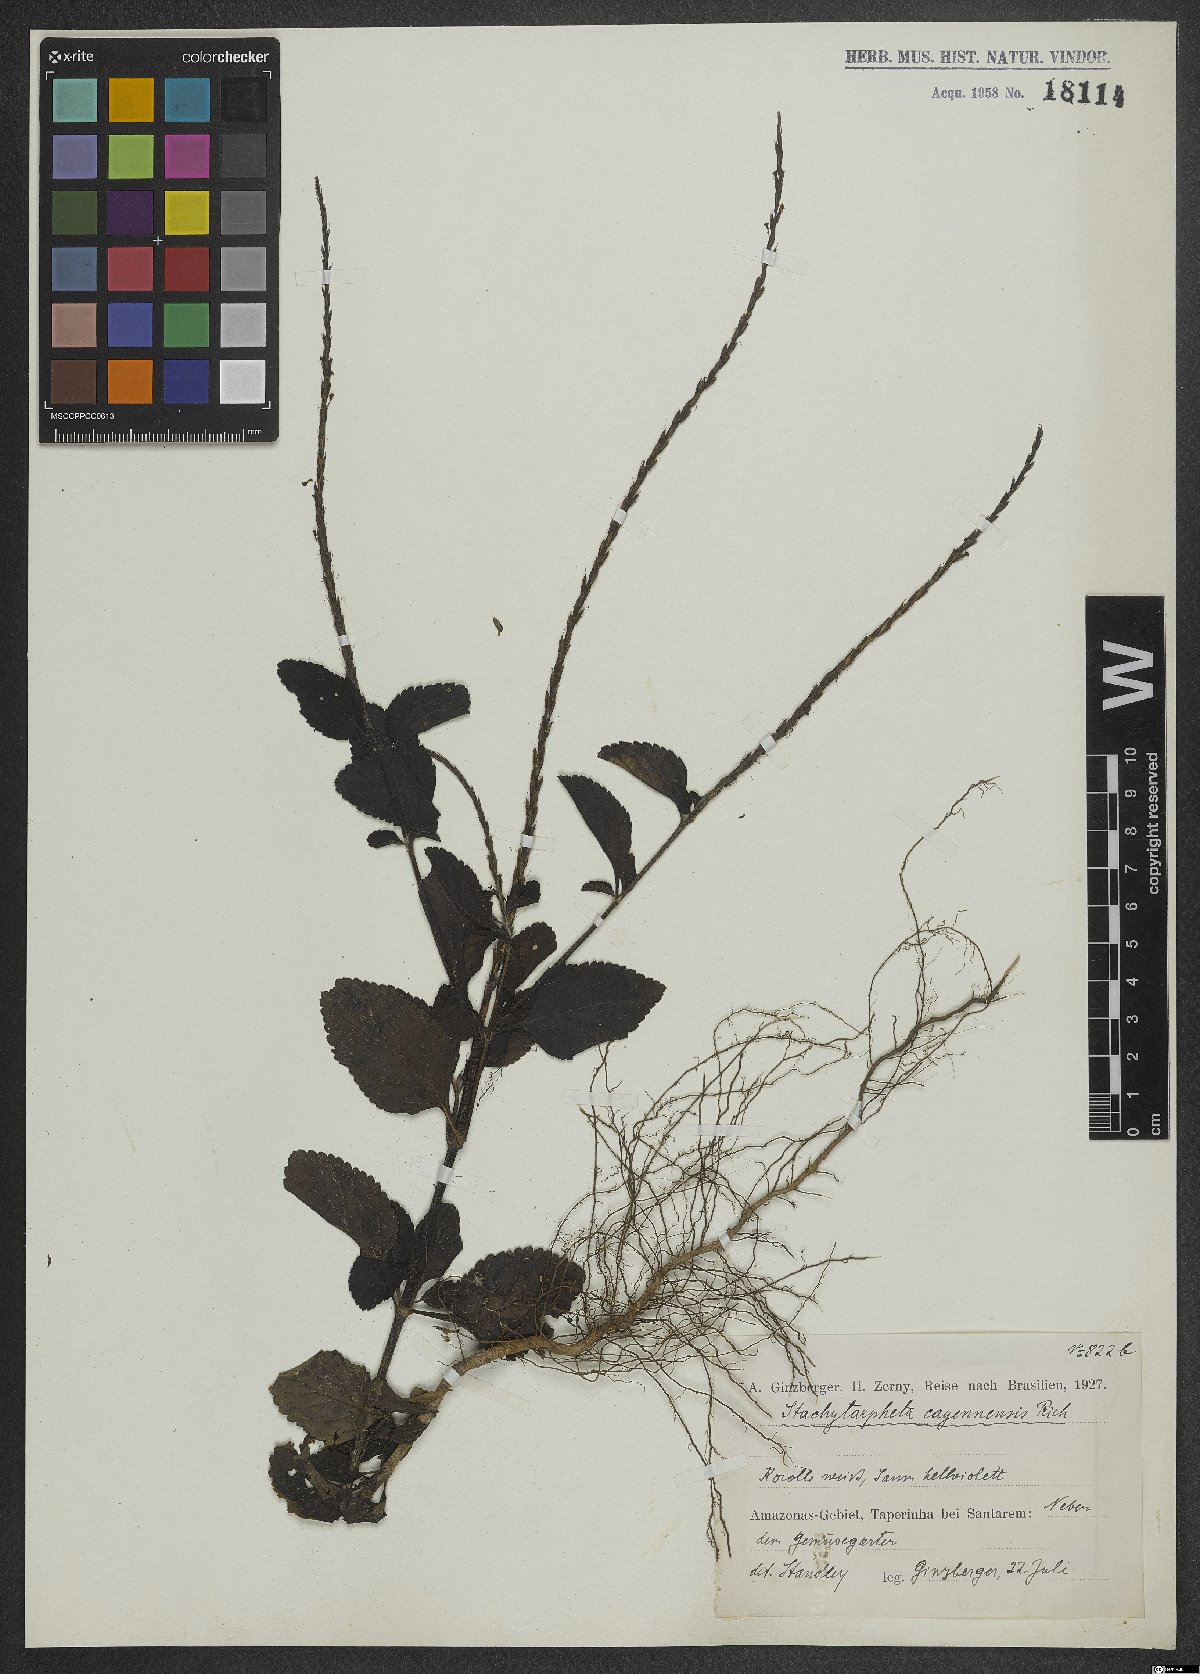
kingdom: Plantae
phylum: Tracheophyta
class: Magnoliopsida
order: Lamiales
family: Verbenaceae
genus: Stachytarpheta
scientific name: Stachytarpheta cayennensis
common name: Cayenne porterweed
